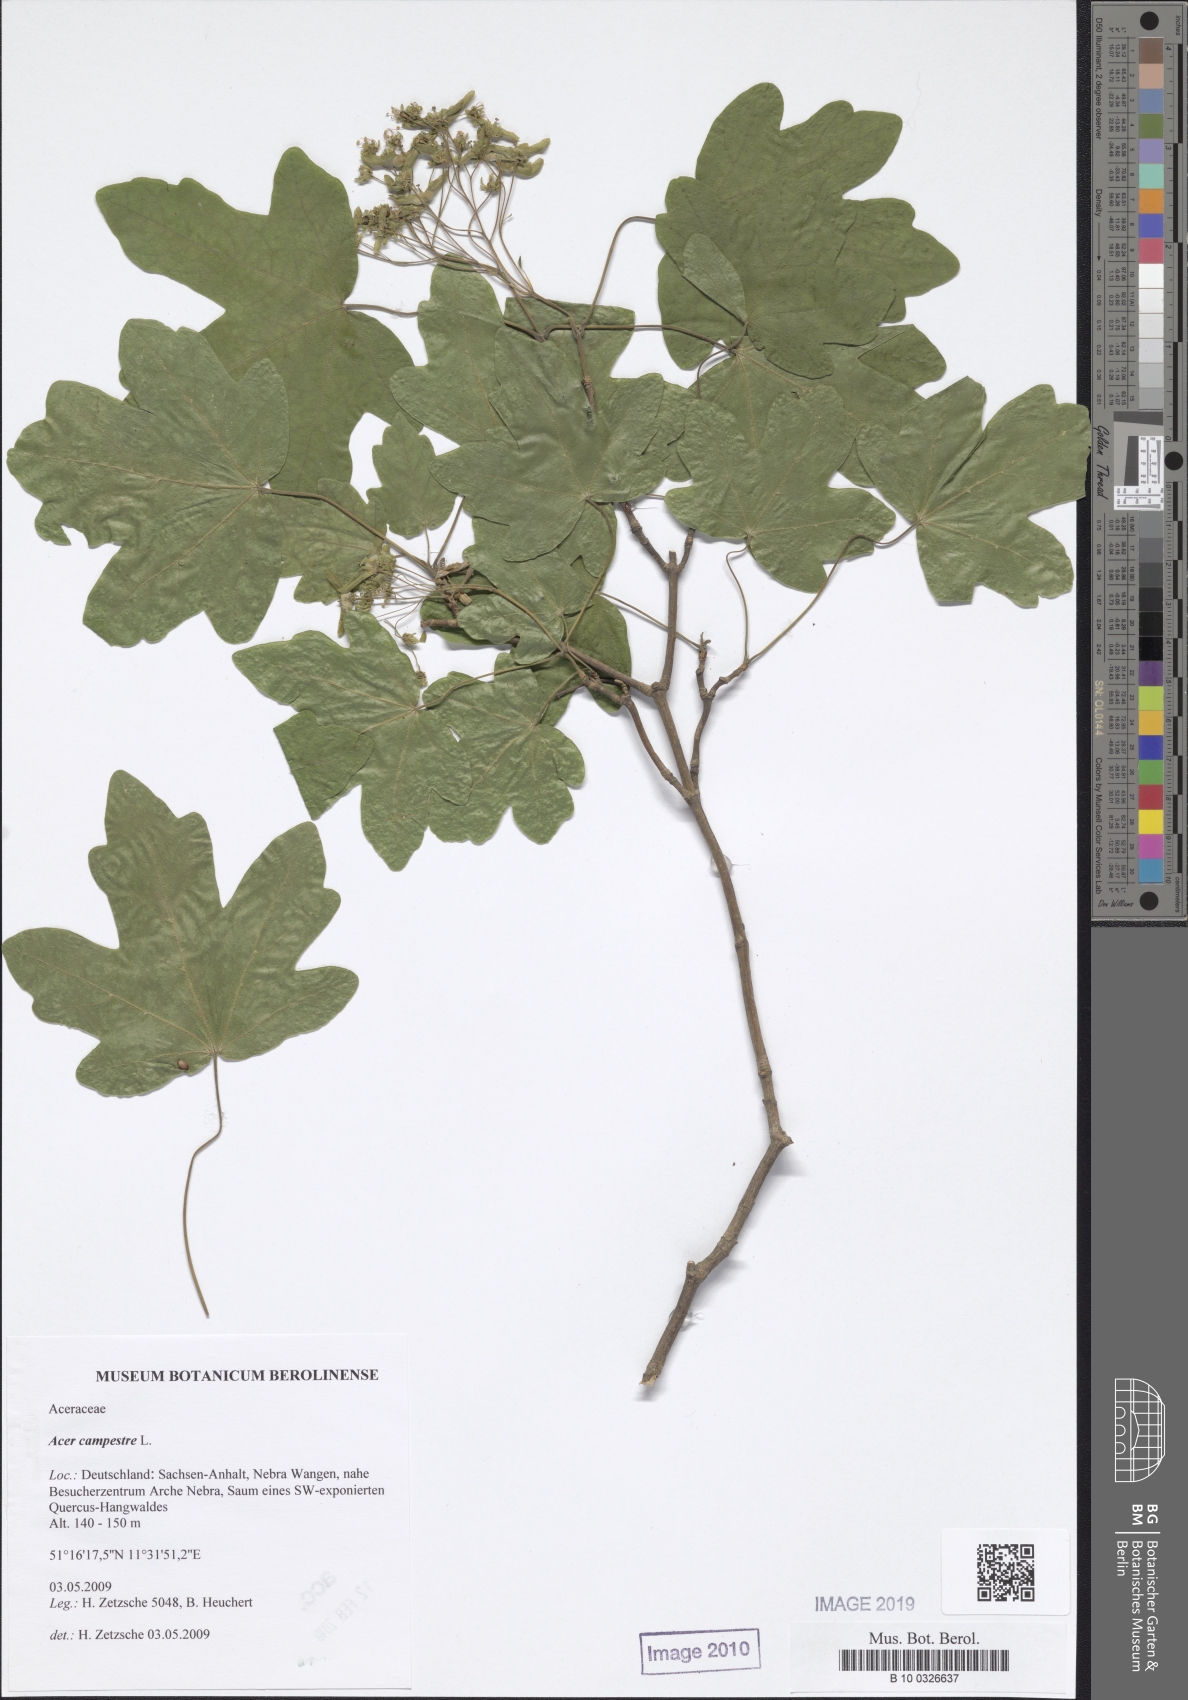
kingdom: Plantae
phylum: Tracheophyta
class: Magnoliopsida
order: Sapindales
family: Sapindaceae
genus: Acer
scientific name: Acer campestre
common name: Field maple
